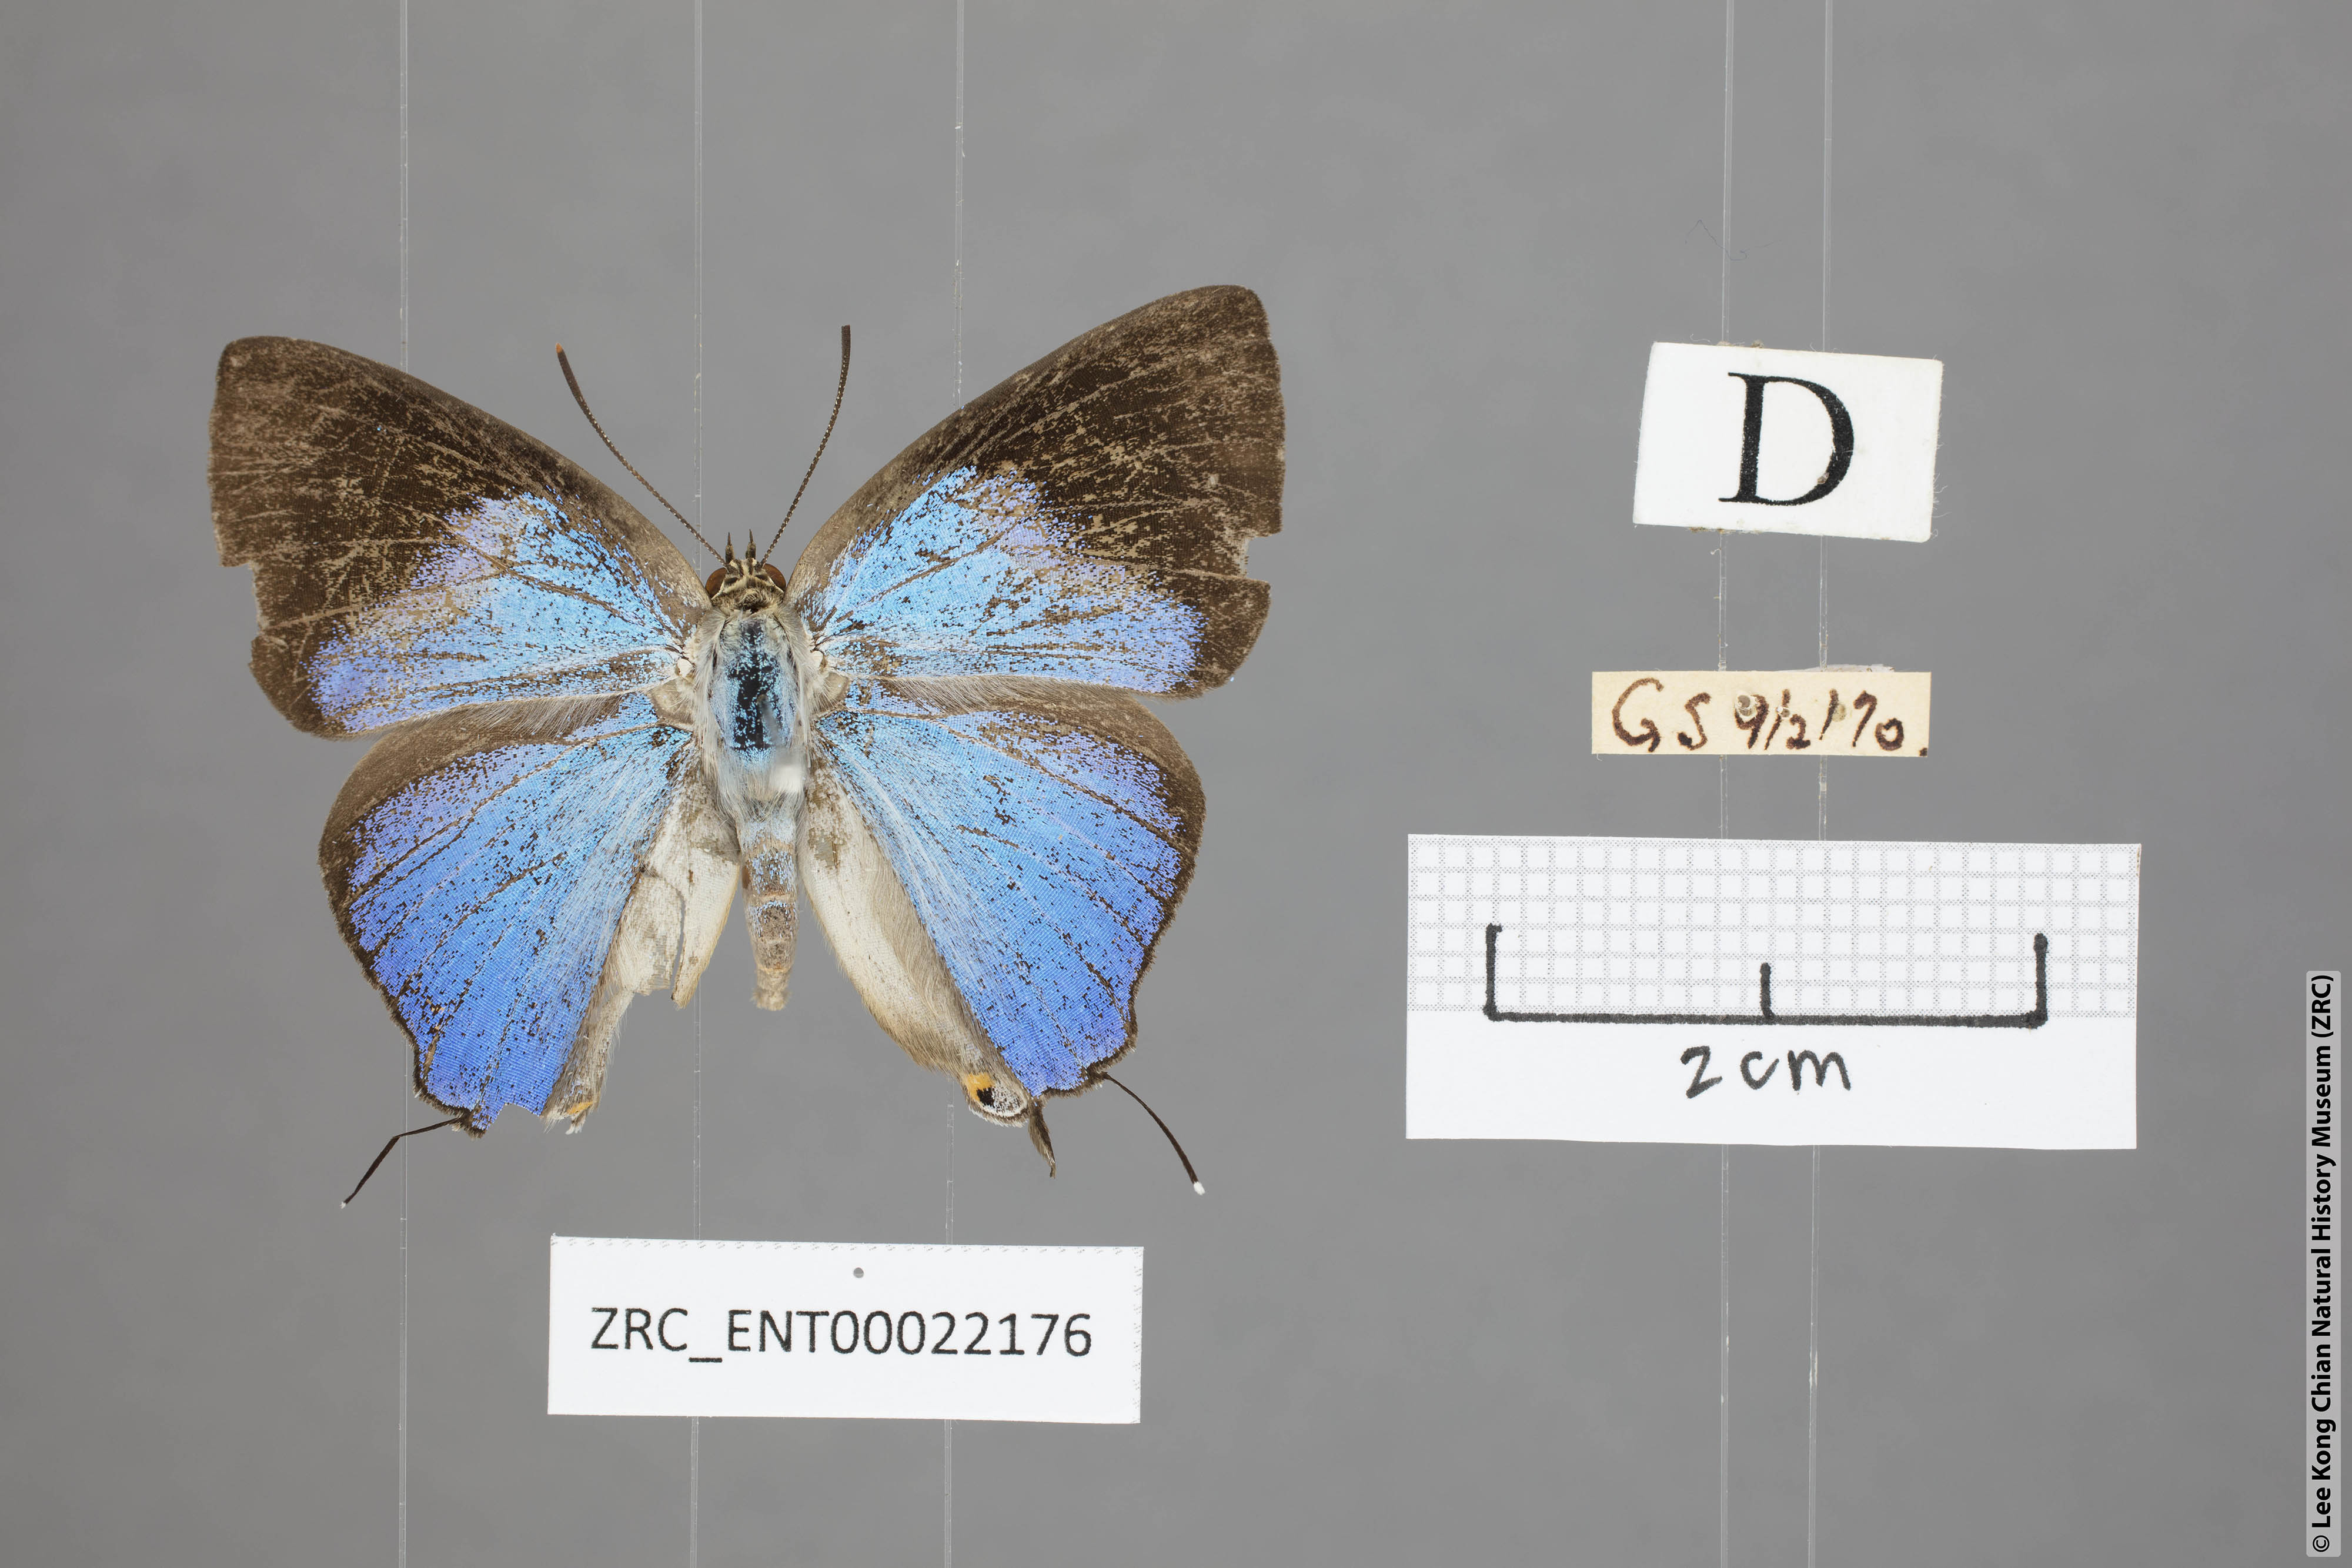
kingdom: Animalia
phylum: Arthropoda
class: Insecta
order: Lepidoptera
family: Lycaenidae
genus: Tajuria
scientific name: Tajuria deudaix
